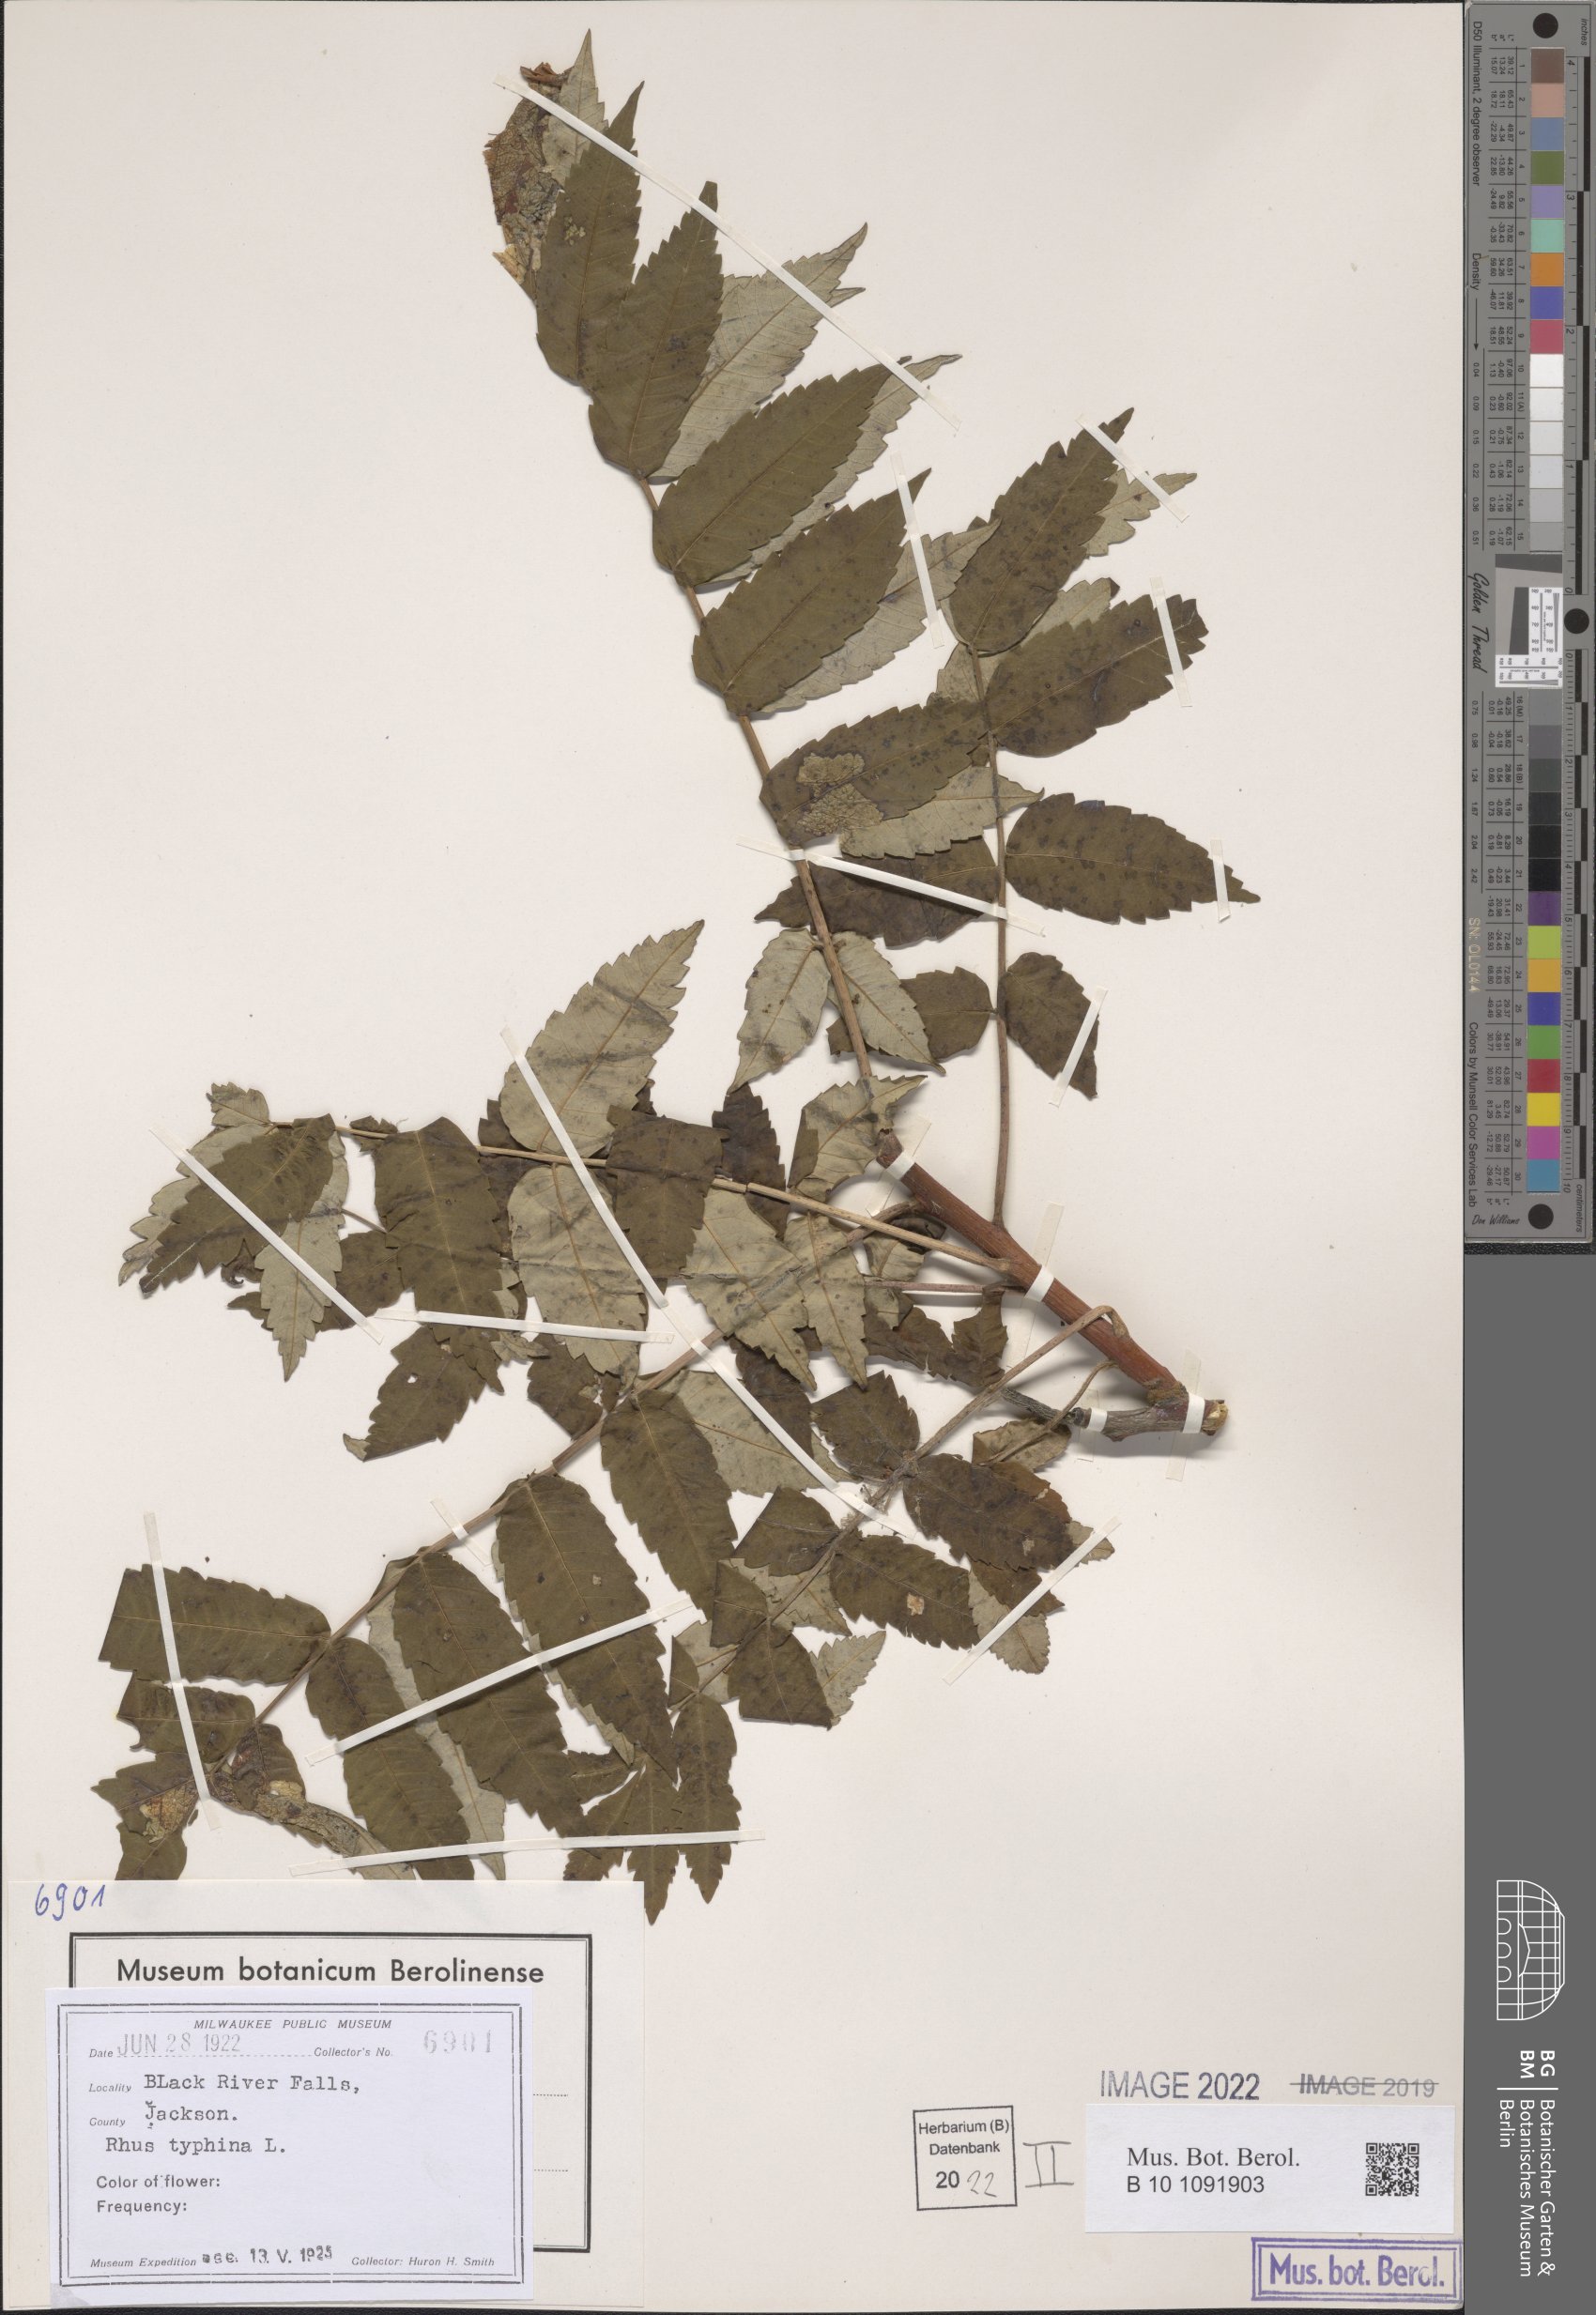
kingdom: Plantae
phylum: Tracheophyta
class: Magnoliopsida
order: Sapindales
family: Anacardiaceae
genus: Rhus
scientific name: Rhus typhina
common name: Staghorn sumac
